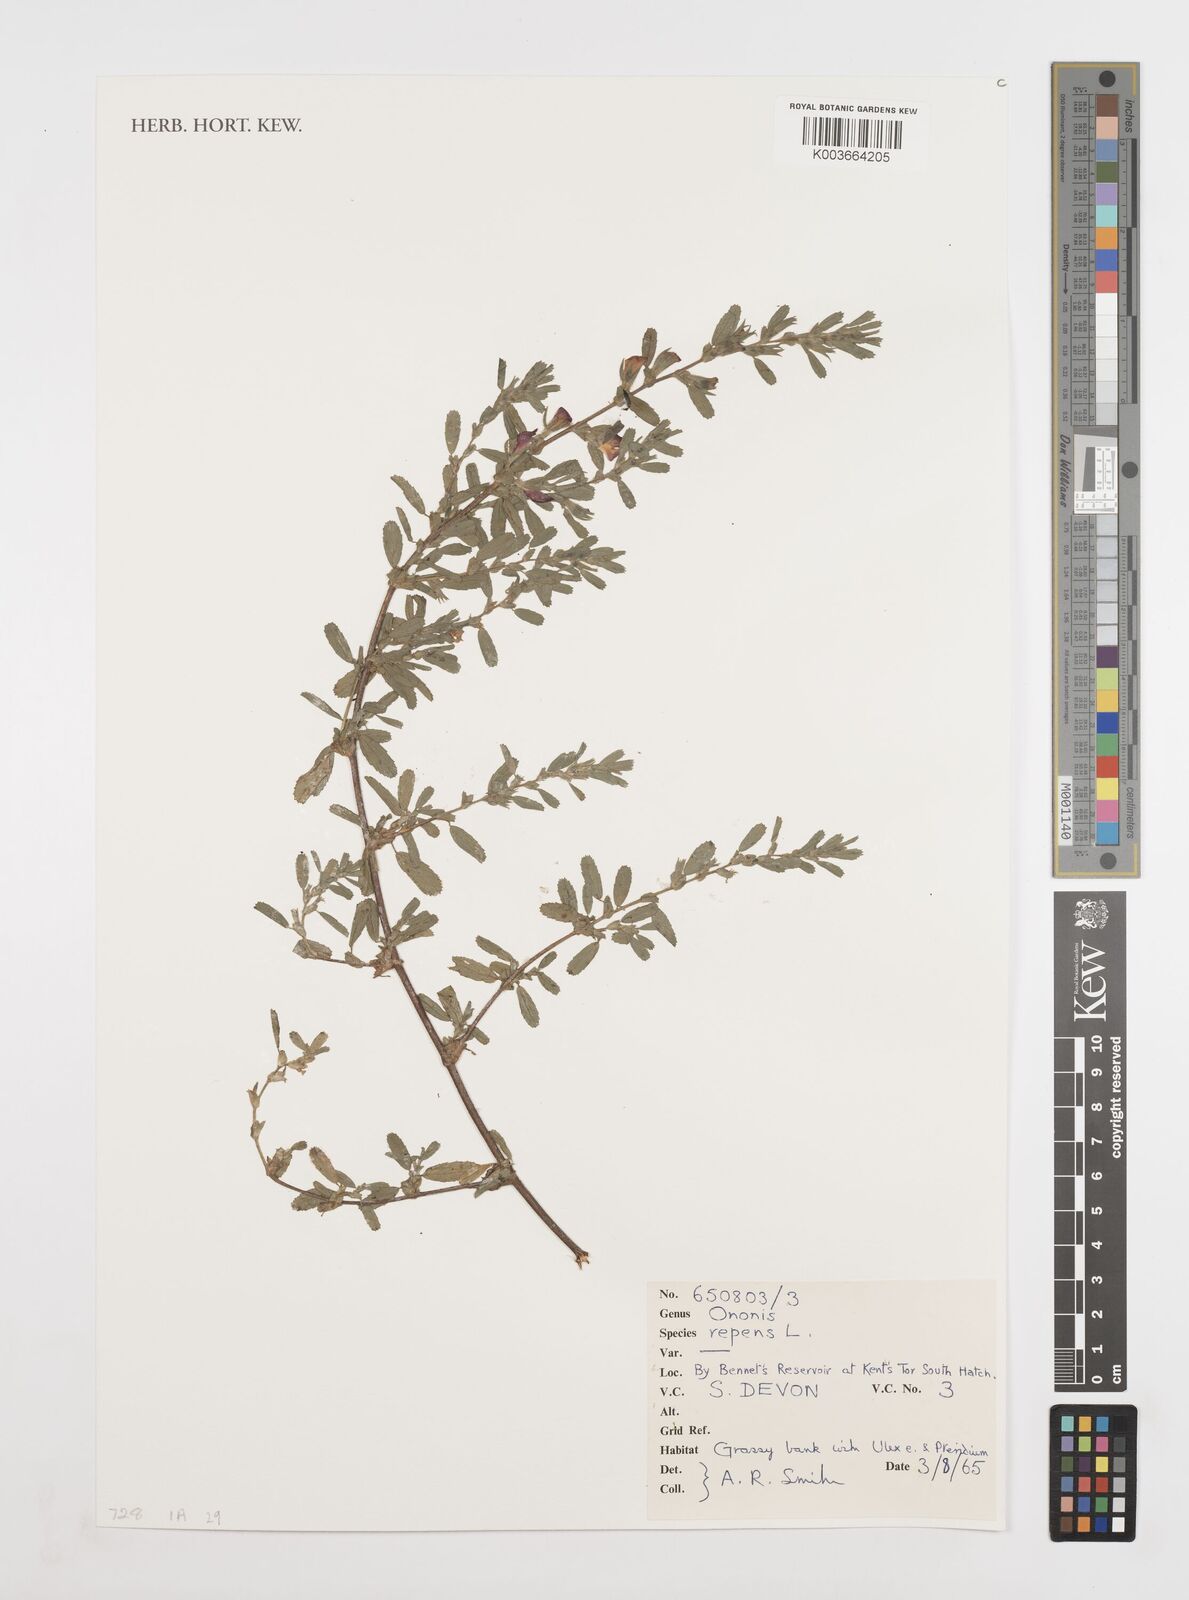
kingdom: Plantae
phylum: Tracheophyta
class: Magnoliopsida
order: Fabales
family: Fabaceae
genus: Ononis
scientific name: Ononis spinosa
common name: Spiny restharrow
